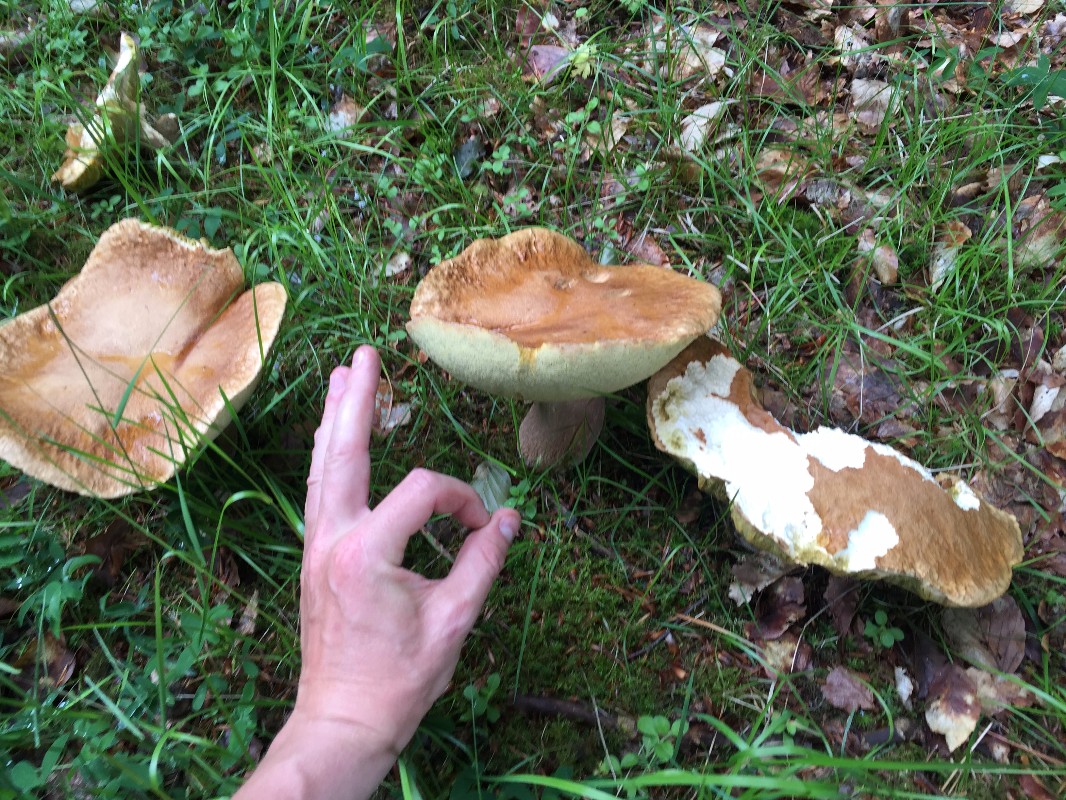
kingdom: Fungi
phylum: Basidiomycota
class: Agaricomycetes
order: Boletales
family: Boletaceae
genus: Boletus
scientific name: Boletus reticulatus
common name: sommer-rørhat
